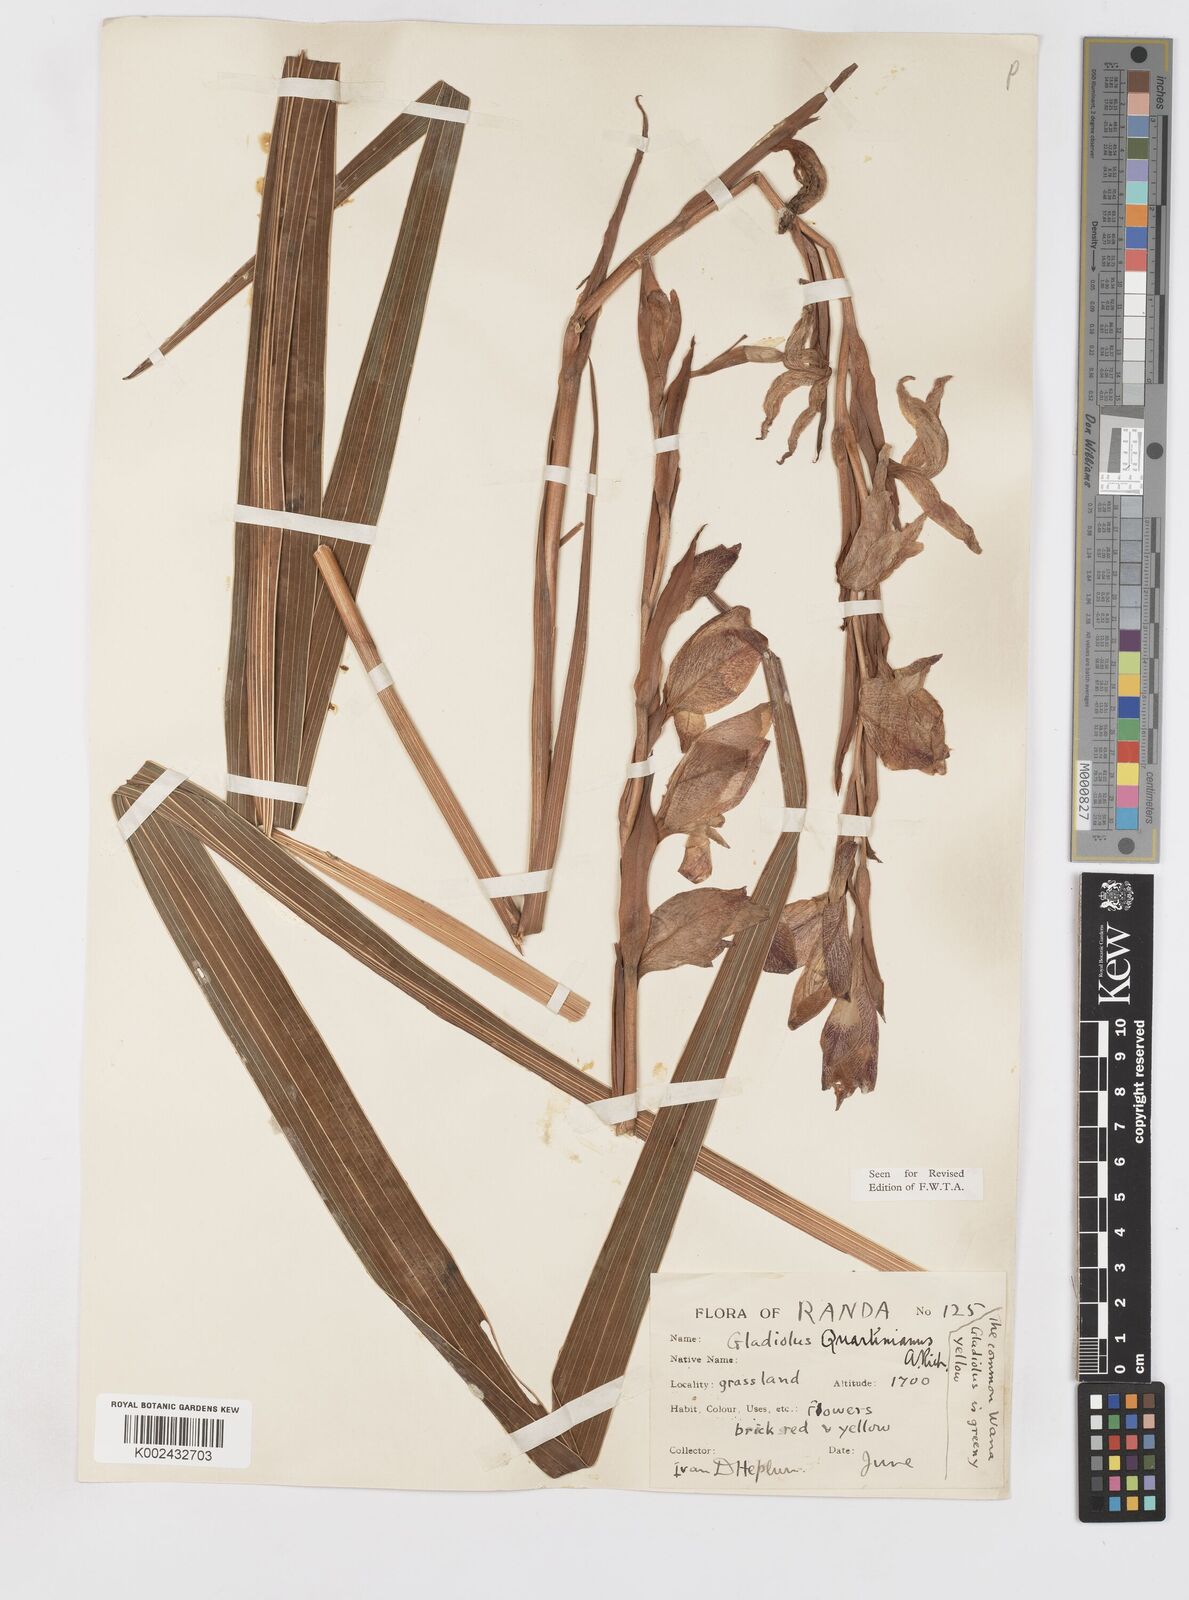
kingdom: Plantae
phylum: Tracheophyta
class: Liliopsida
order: Asparagales
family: Iridaceae
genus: Gladiolus
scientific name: Gladiolus dalenii
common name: Cornflag
